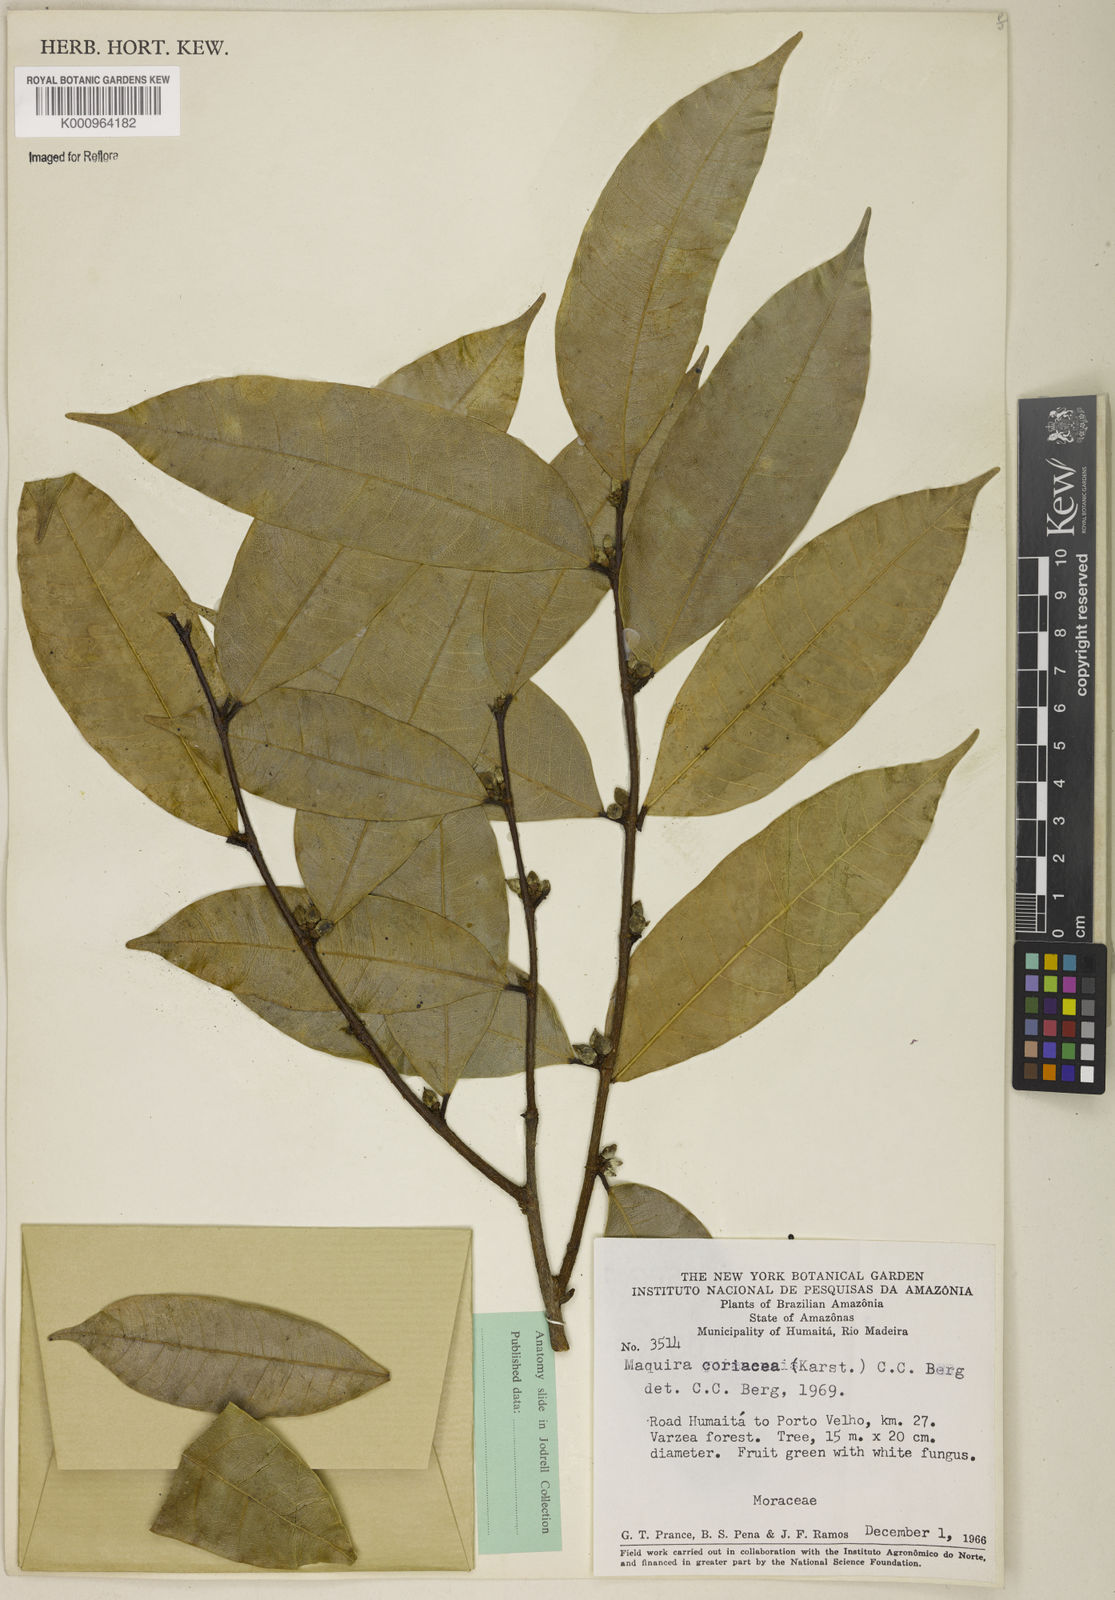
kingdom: Plantae
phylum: Tracheophyta
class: Magnoliopsida
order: Rosales
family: Moraceae
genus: Maquira
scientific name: Maquira coriacea
